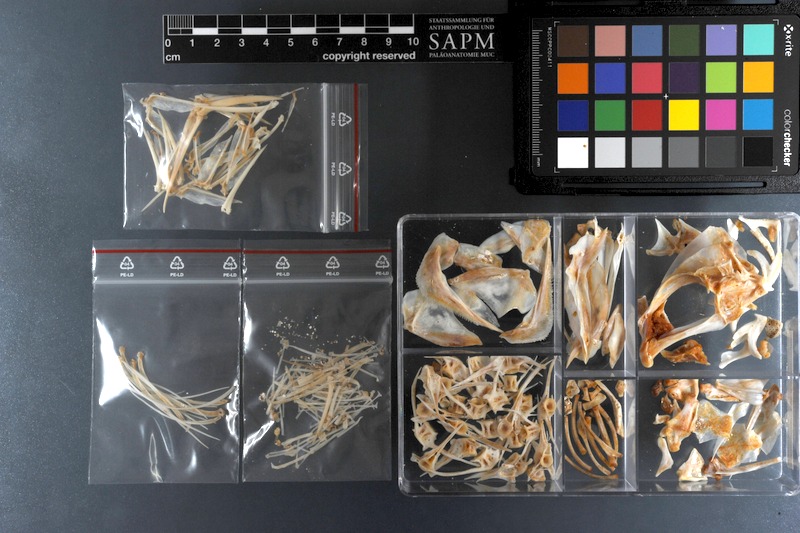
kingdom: Animalia
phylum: Chordata
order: Perciformes
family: Haemulidae
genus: Plectorhinchus
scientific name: Plectorhinchus flavomaculatus
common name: Netted sweetlips
